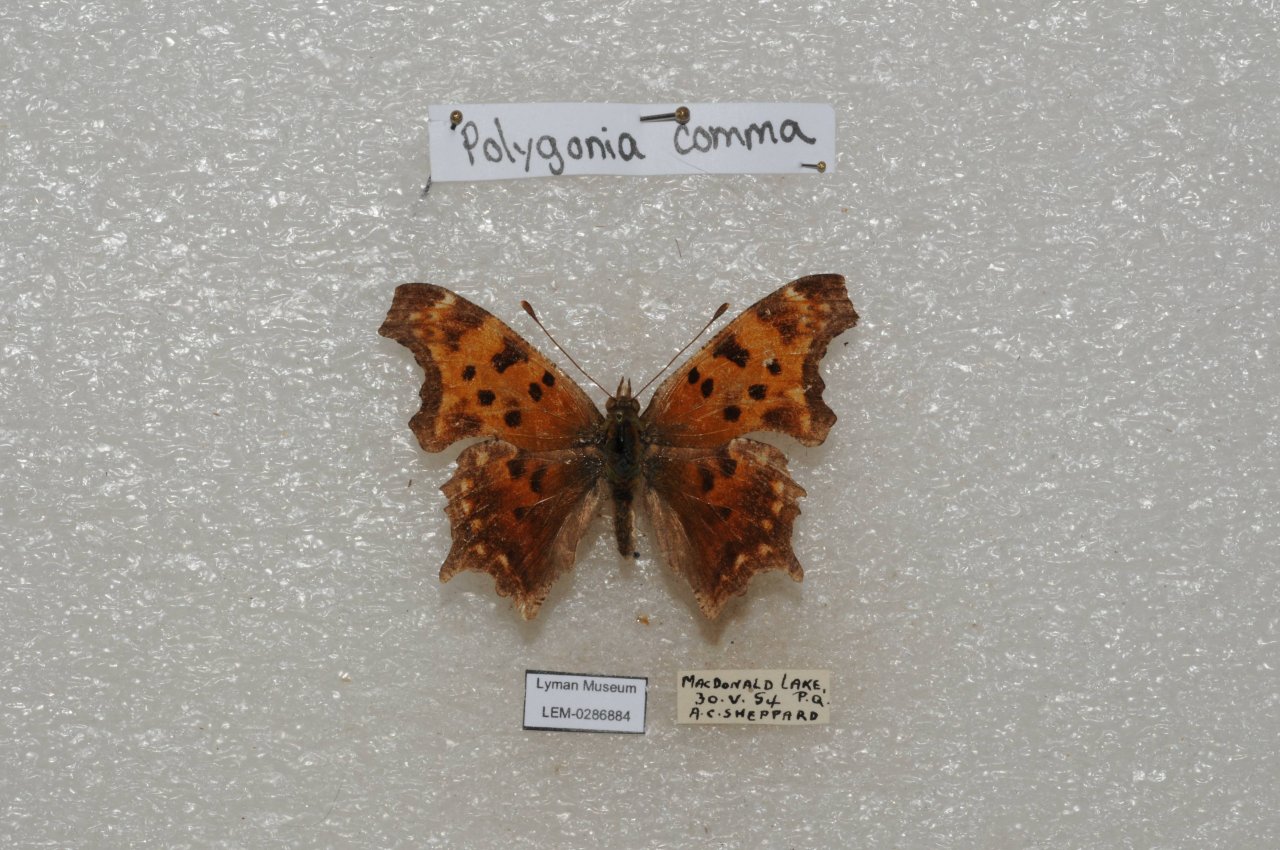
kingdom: Animalia
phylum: Arthropoda
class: Insecta
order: Lepidoptera
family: Nymphalidae
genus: Polygonia
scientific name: Polygonia comma
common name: Eastern Comma
